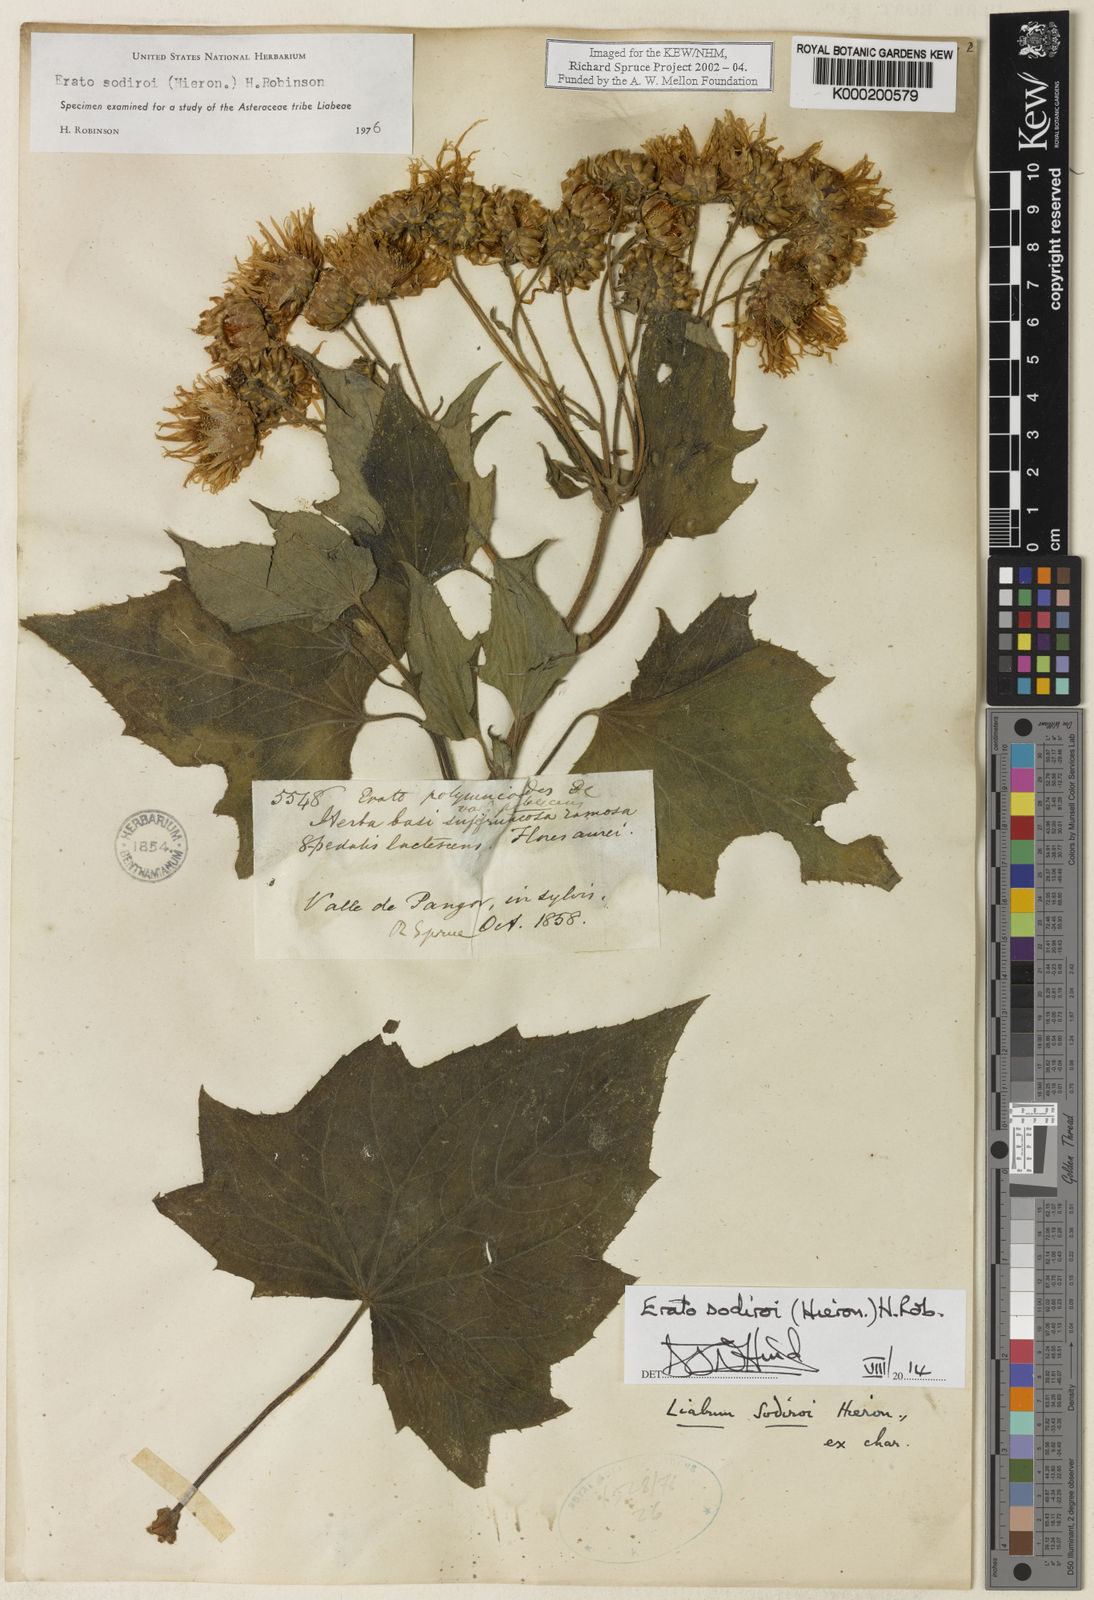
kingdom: Plantae
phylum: Tracheophyta
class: Magnoliopsida
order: Asterales
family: Asteraceae
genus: Erato
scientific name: Erato sodiroi
